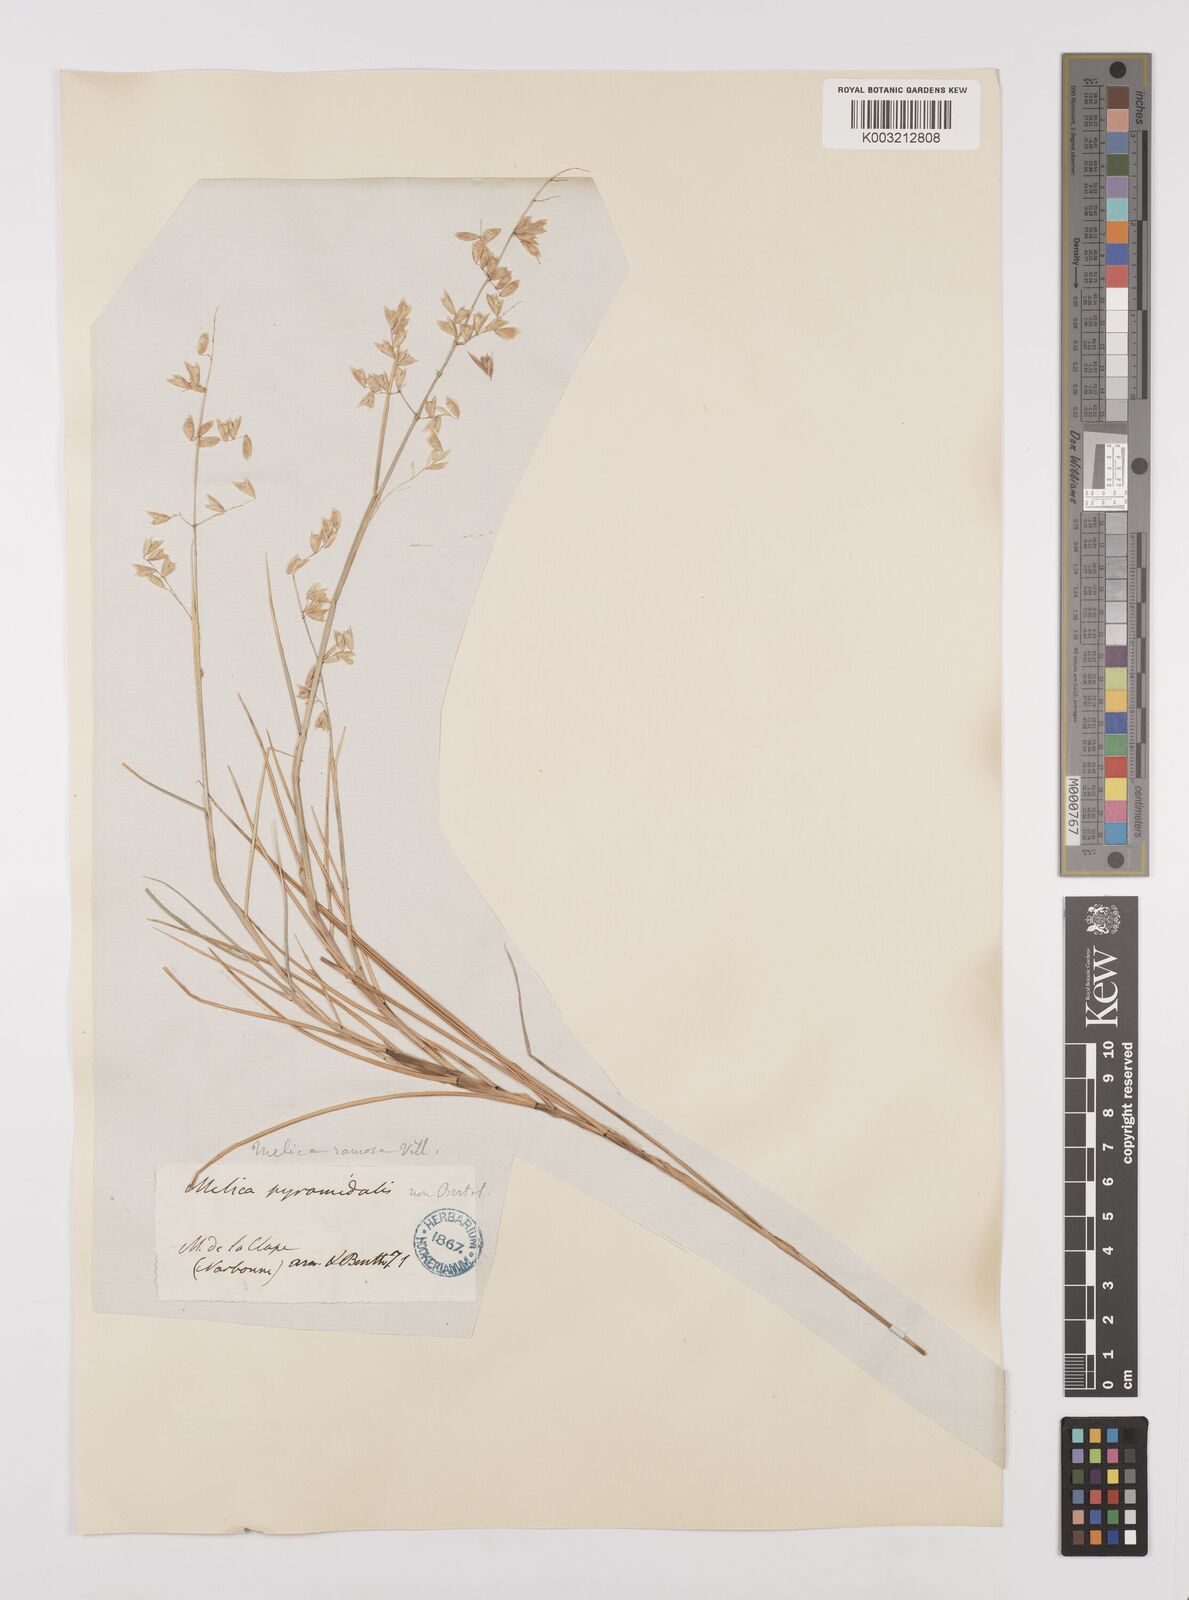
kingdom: Plantae
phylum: Tracheophyta
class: Liliopsida
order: Poales
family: Poaceae
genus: Melica
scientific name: Melica minuta
